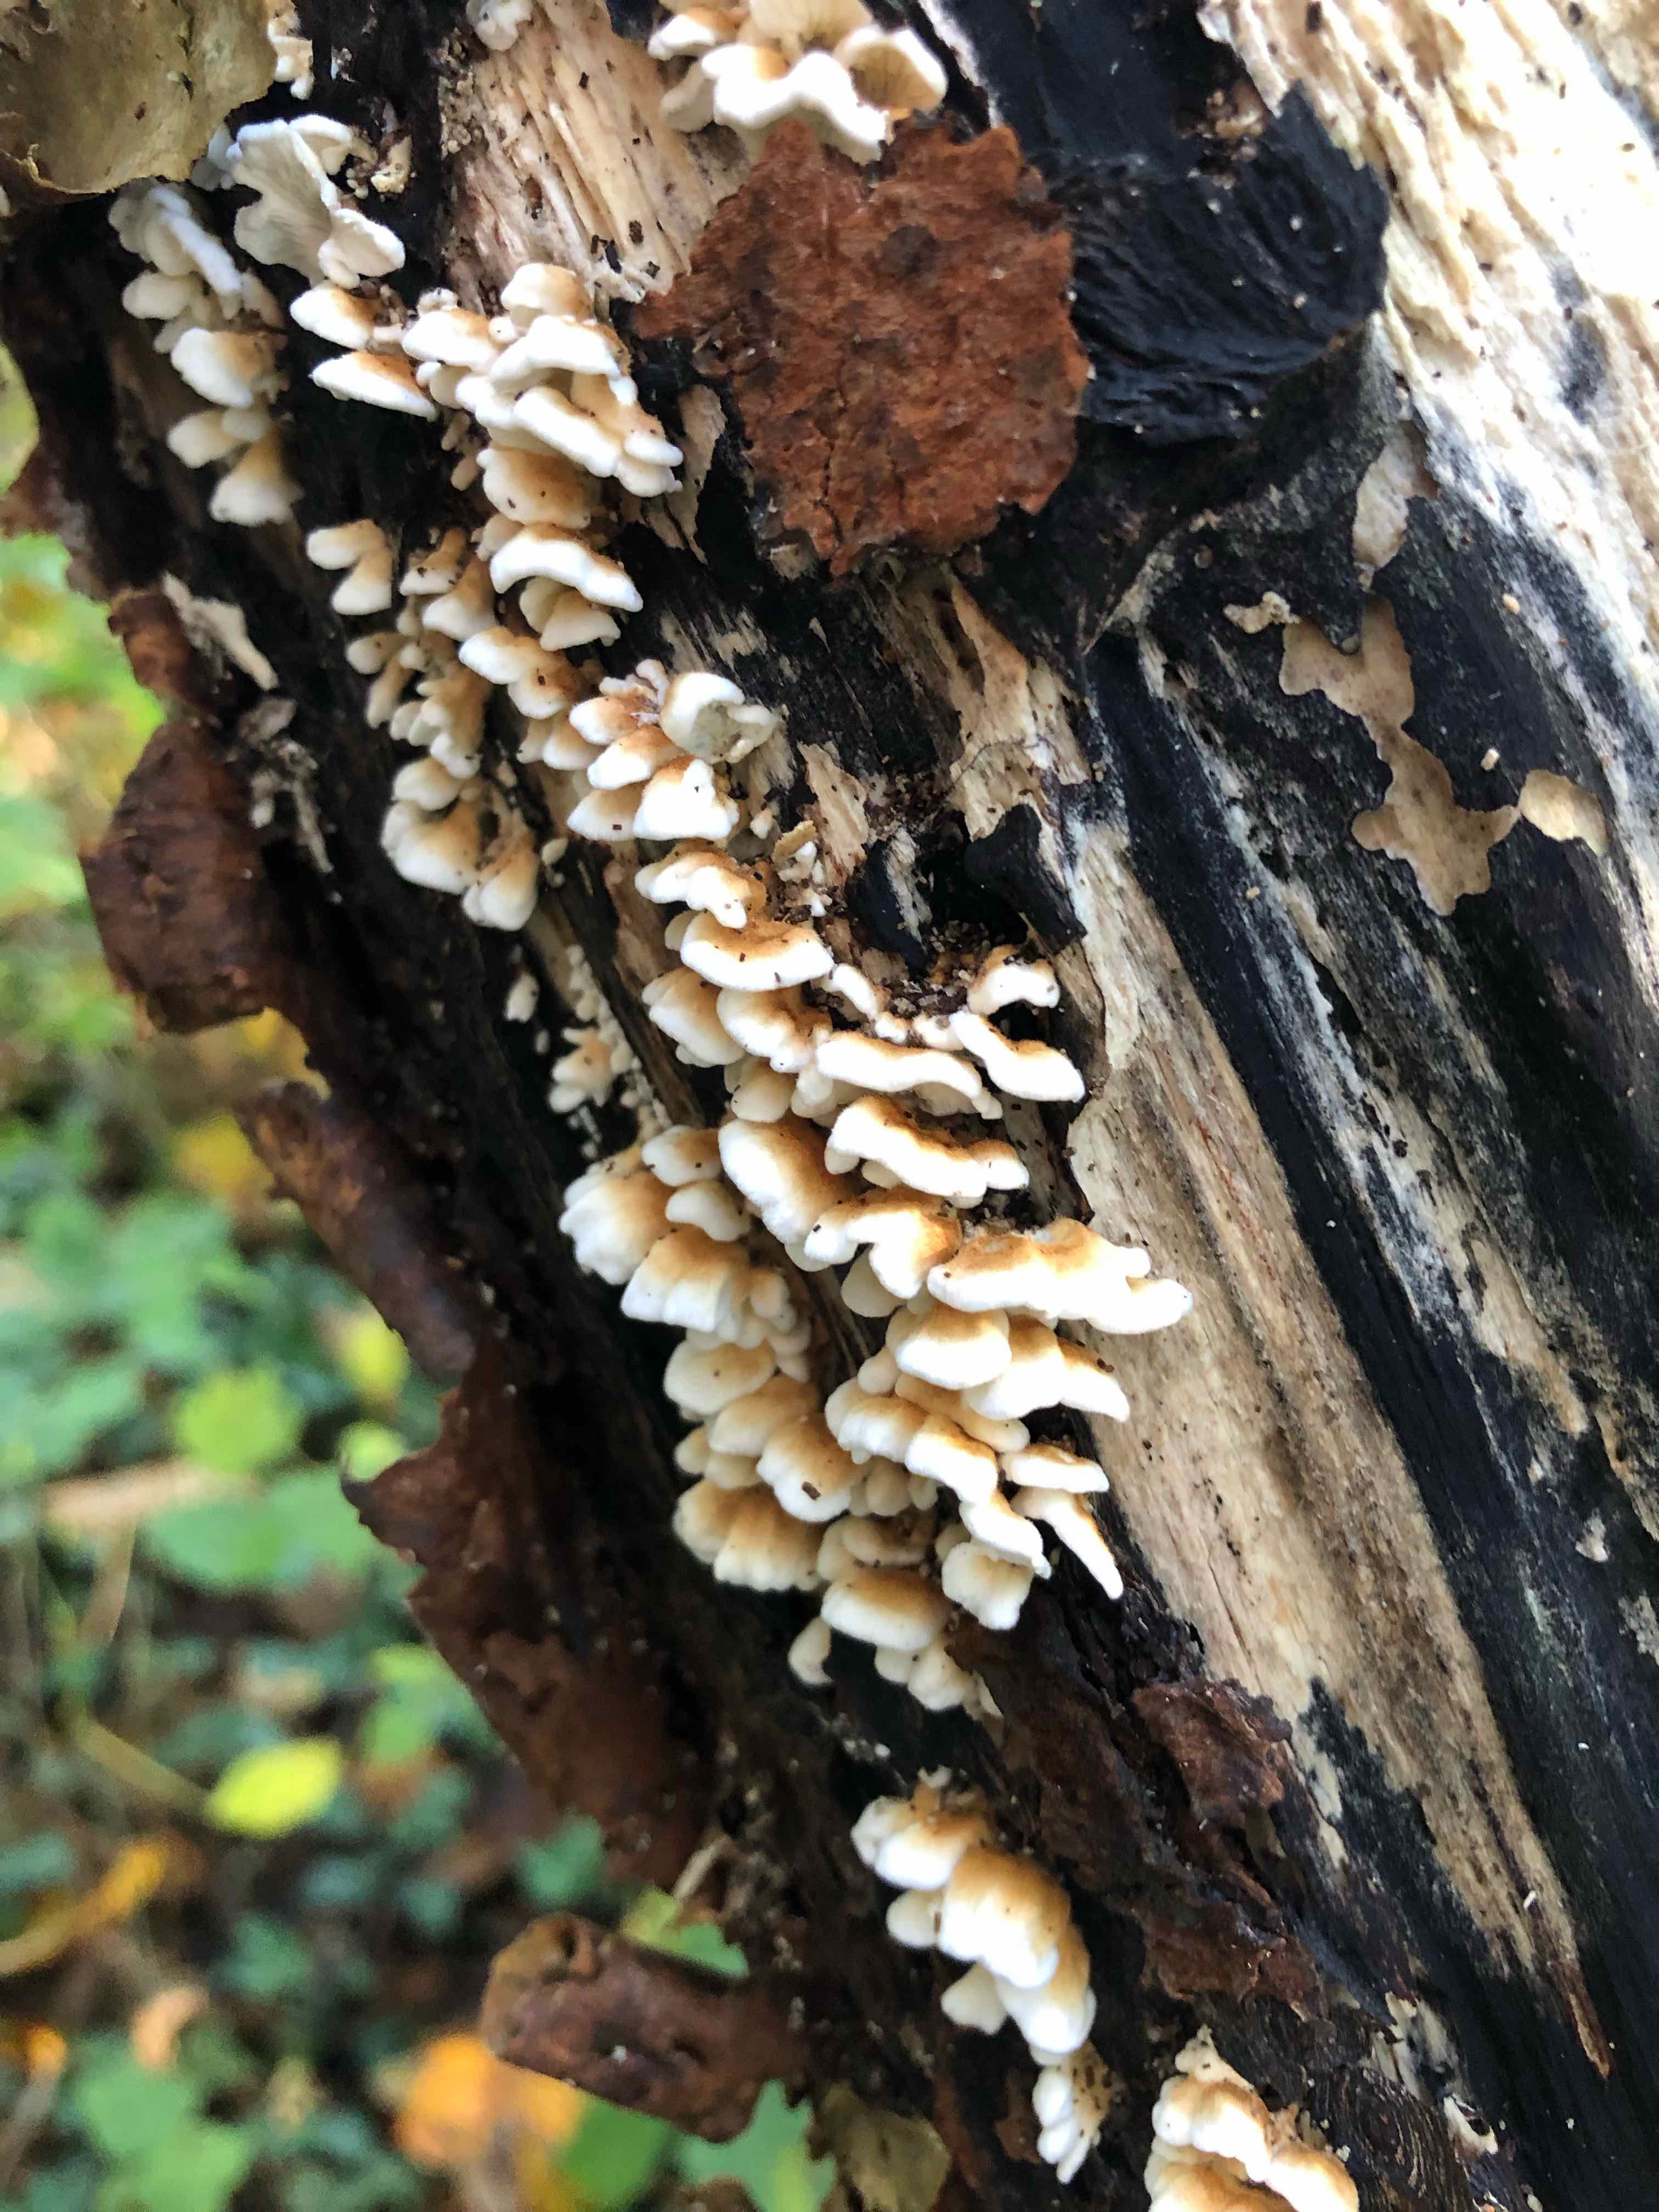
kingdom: Fungi
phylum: Basidiomycota
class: Agaricomycetes
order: Amylocorticiales
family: Amylocorticiaceae
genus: Plicaturopsis
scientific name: Plicaturopsis crispa
